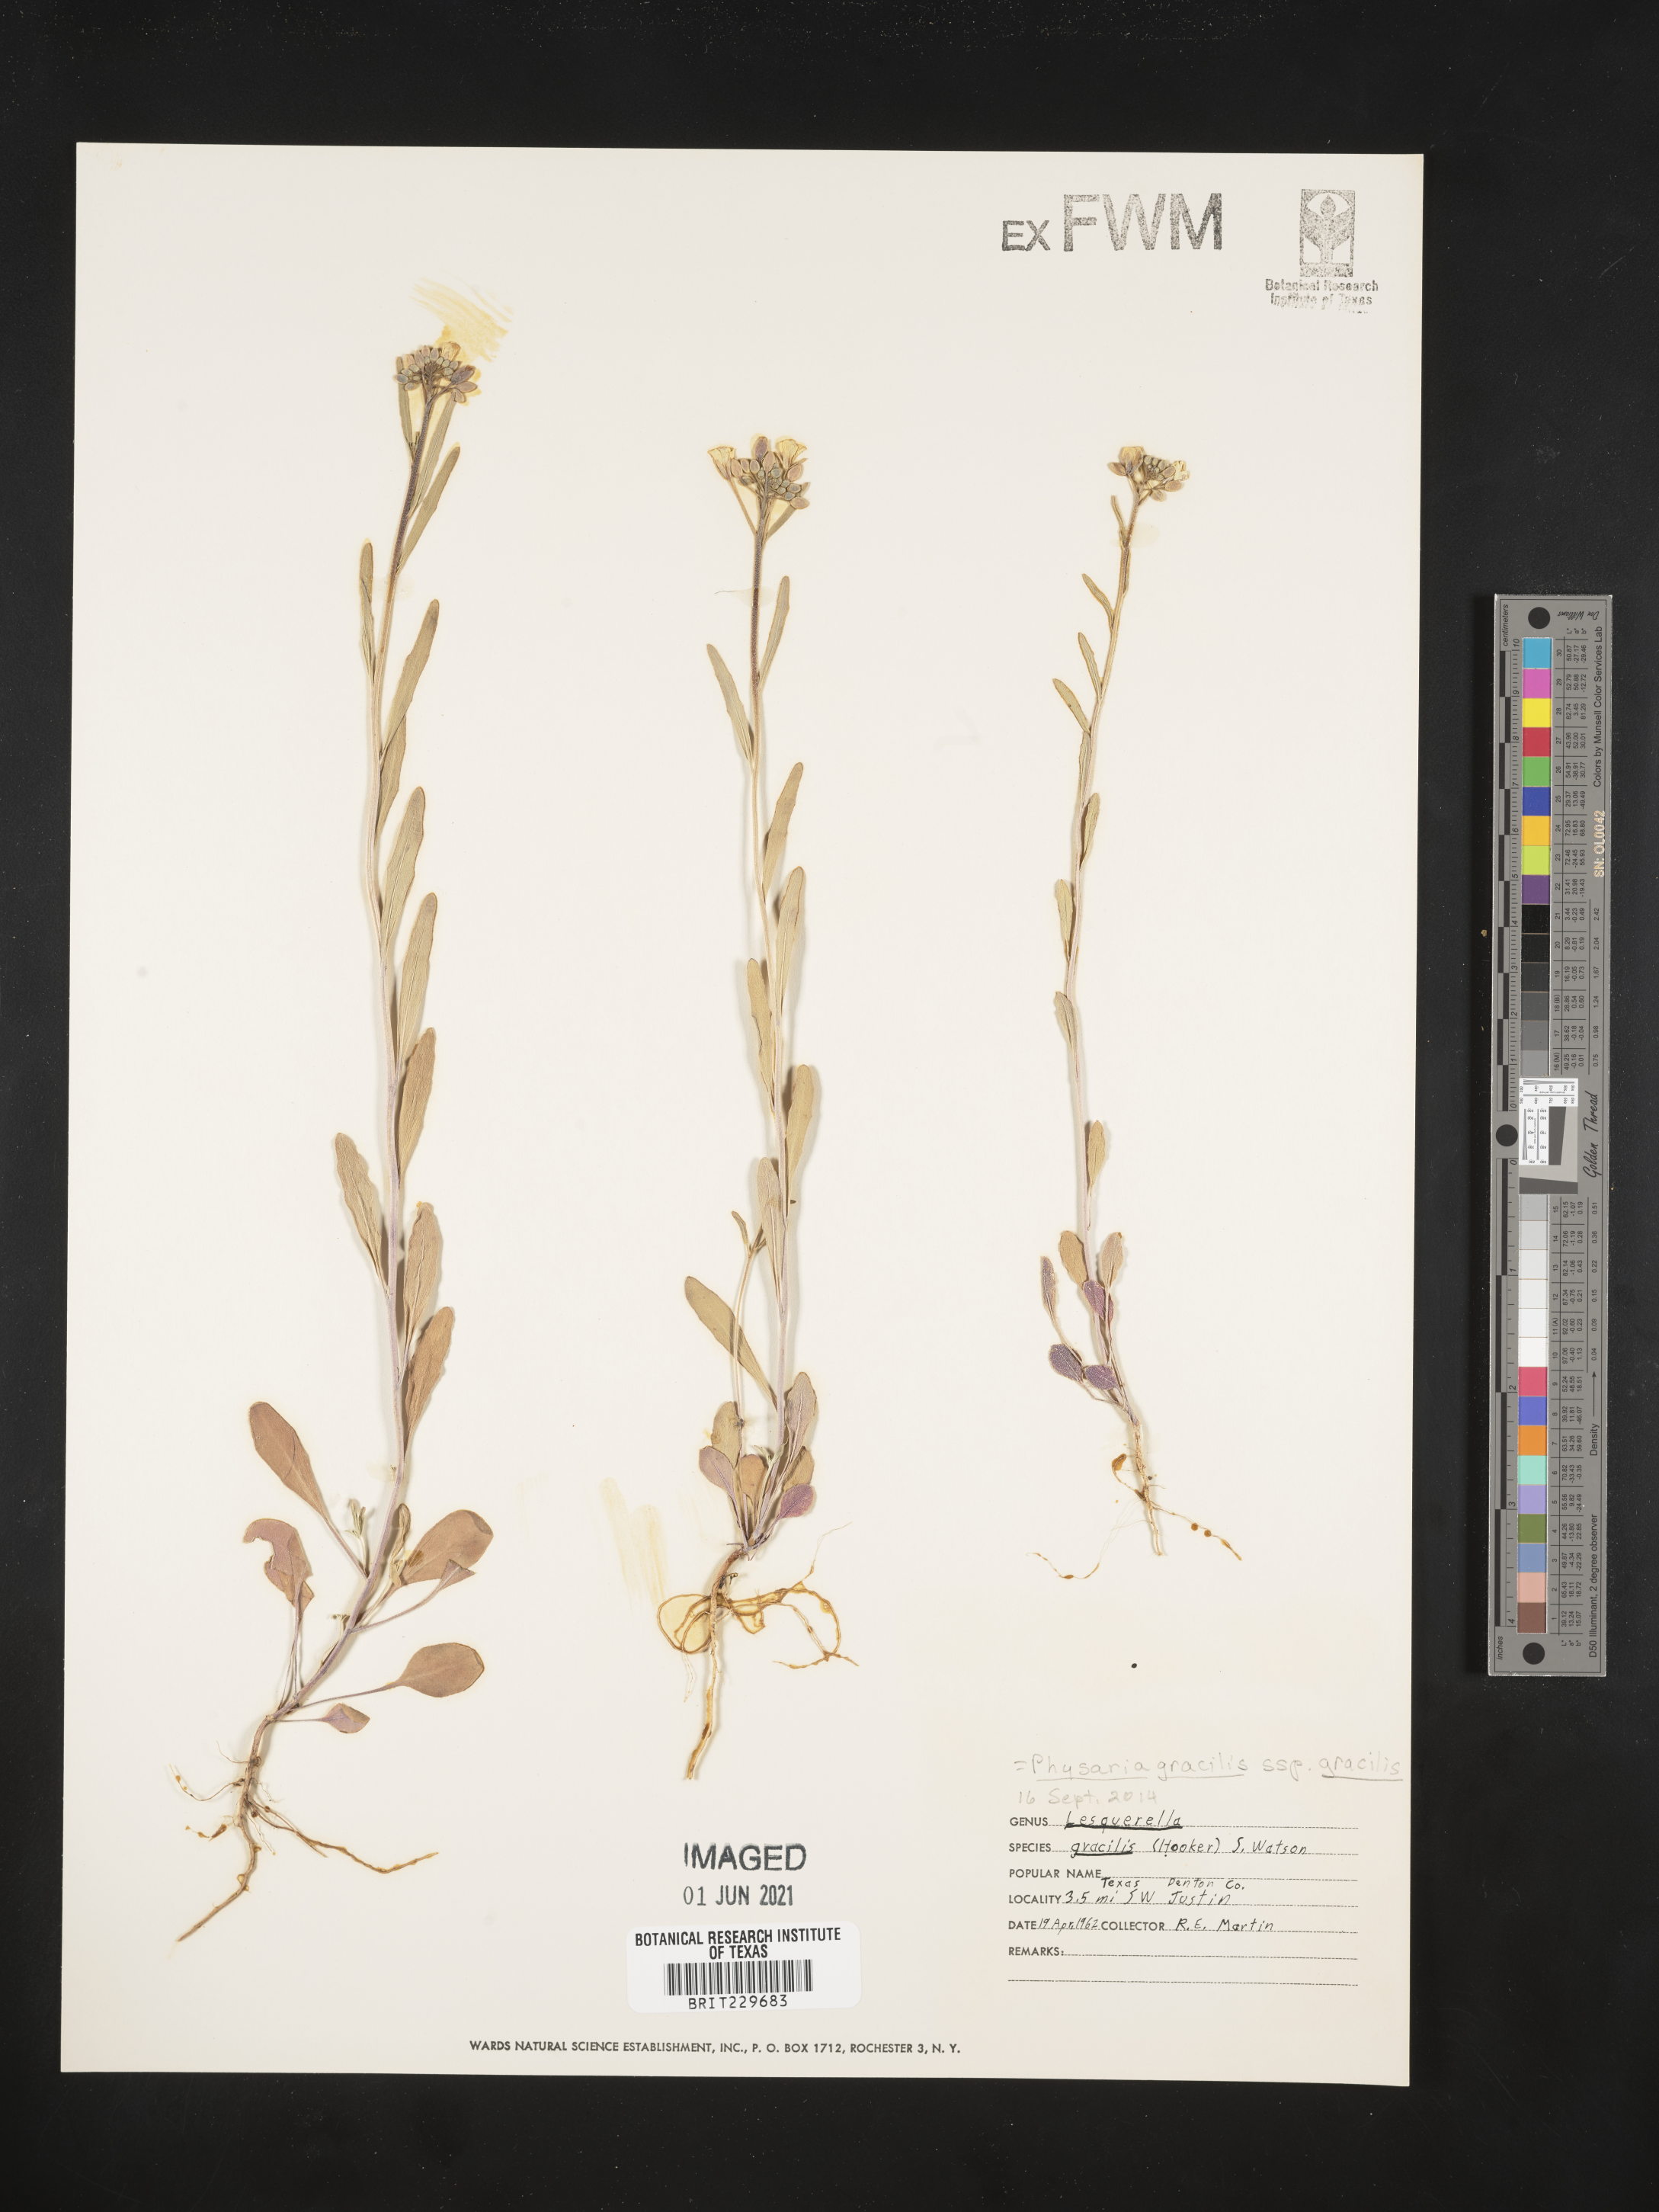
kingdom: Plantae
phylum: Tracheophyta
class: Magnoliopsida
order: Brassicales
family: Brassicaceae
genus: Physaria
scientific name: Physaria gracilis
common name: Spreading bladderpod
